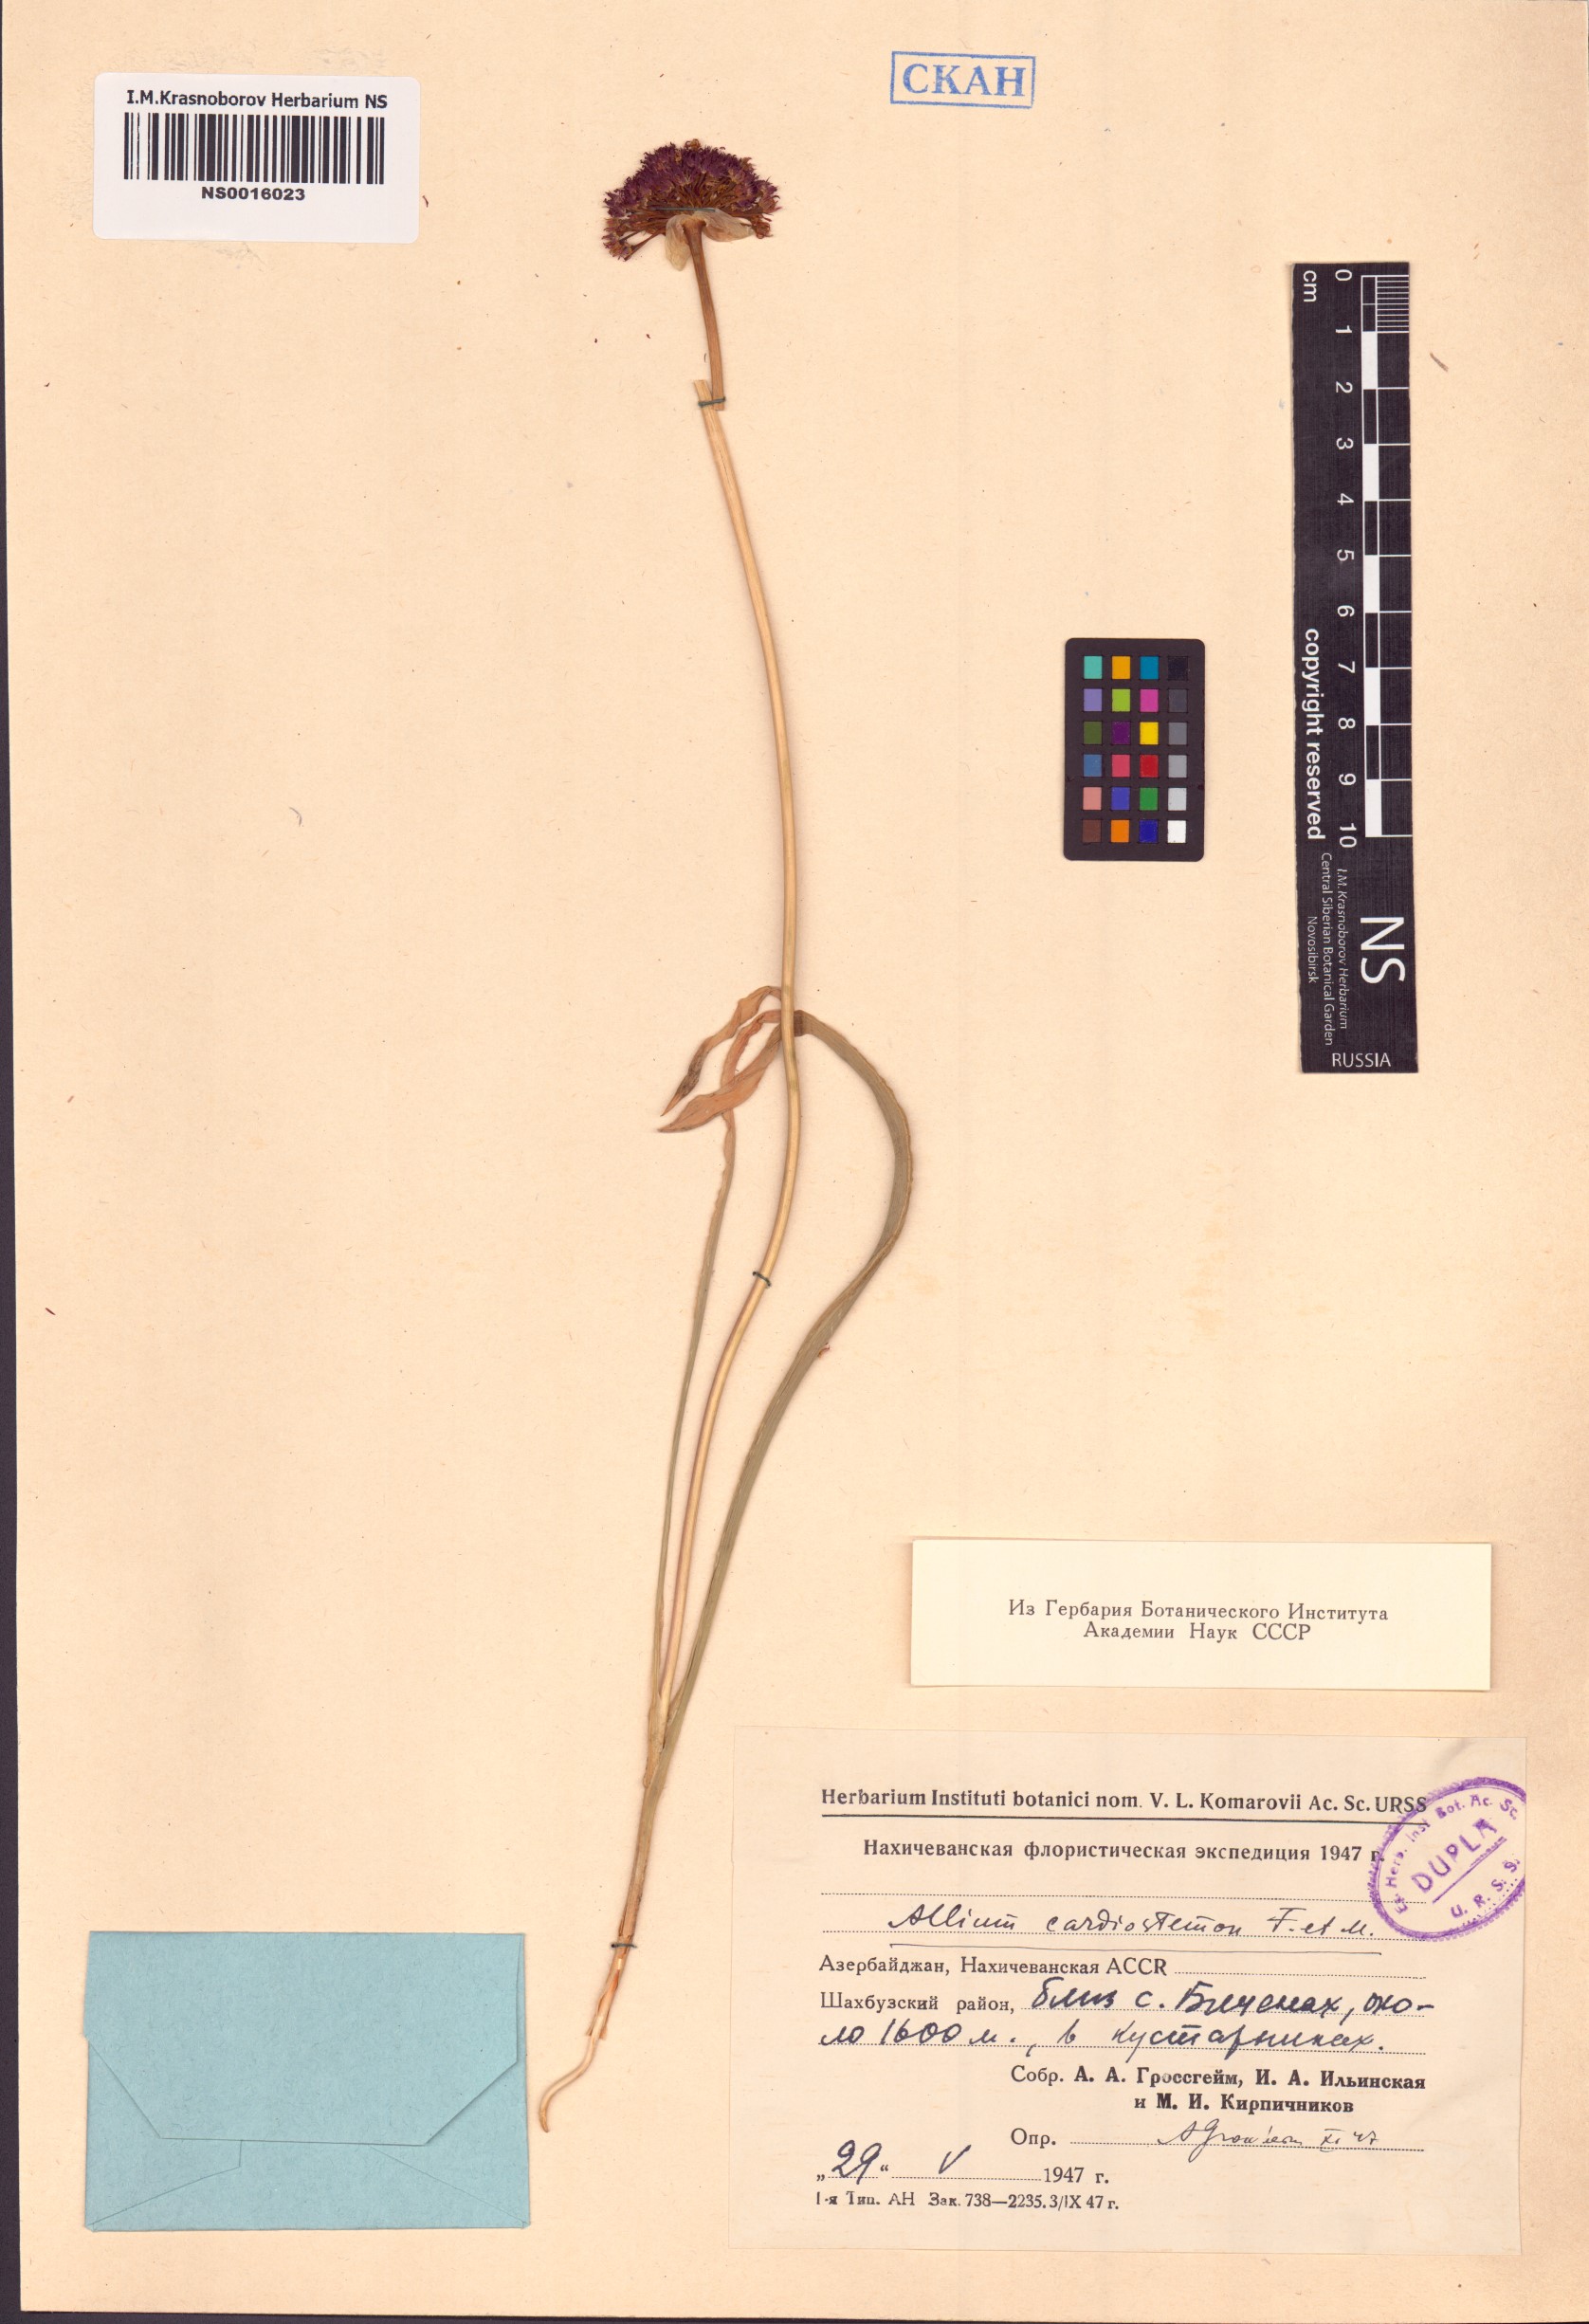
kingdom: Plantae
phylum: Tracheophyta
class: Liliopsida
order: Asparagales
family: Amaryllidaceae
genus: Allium
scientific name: Allium cardiostemon
